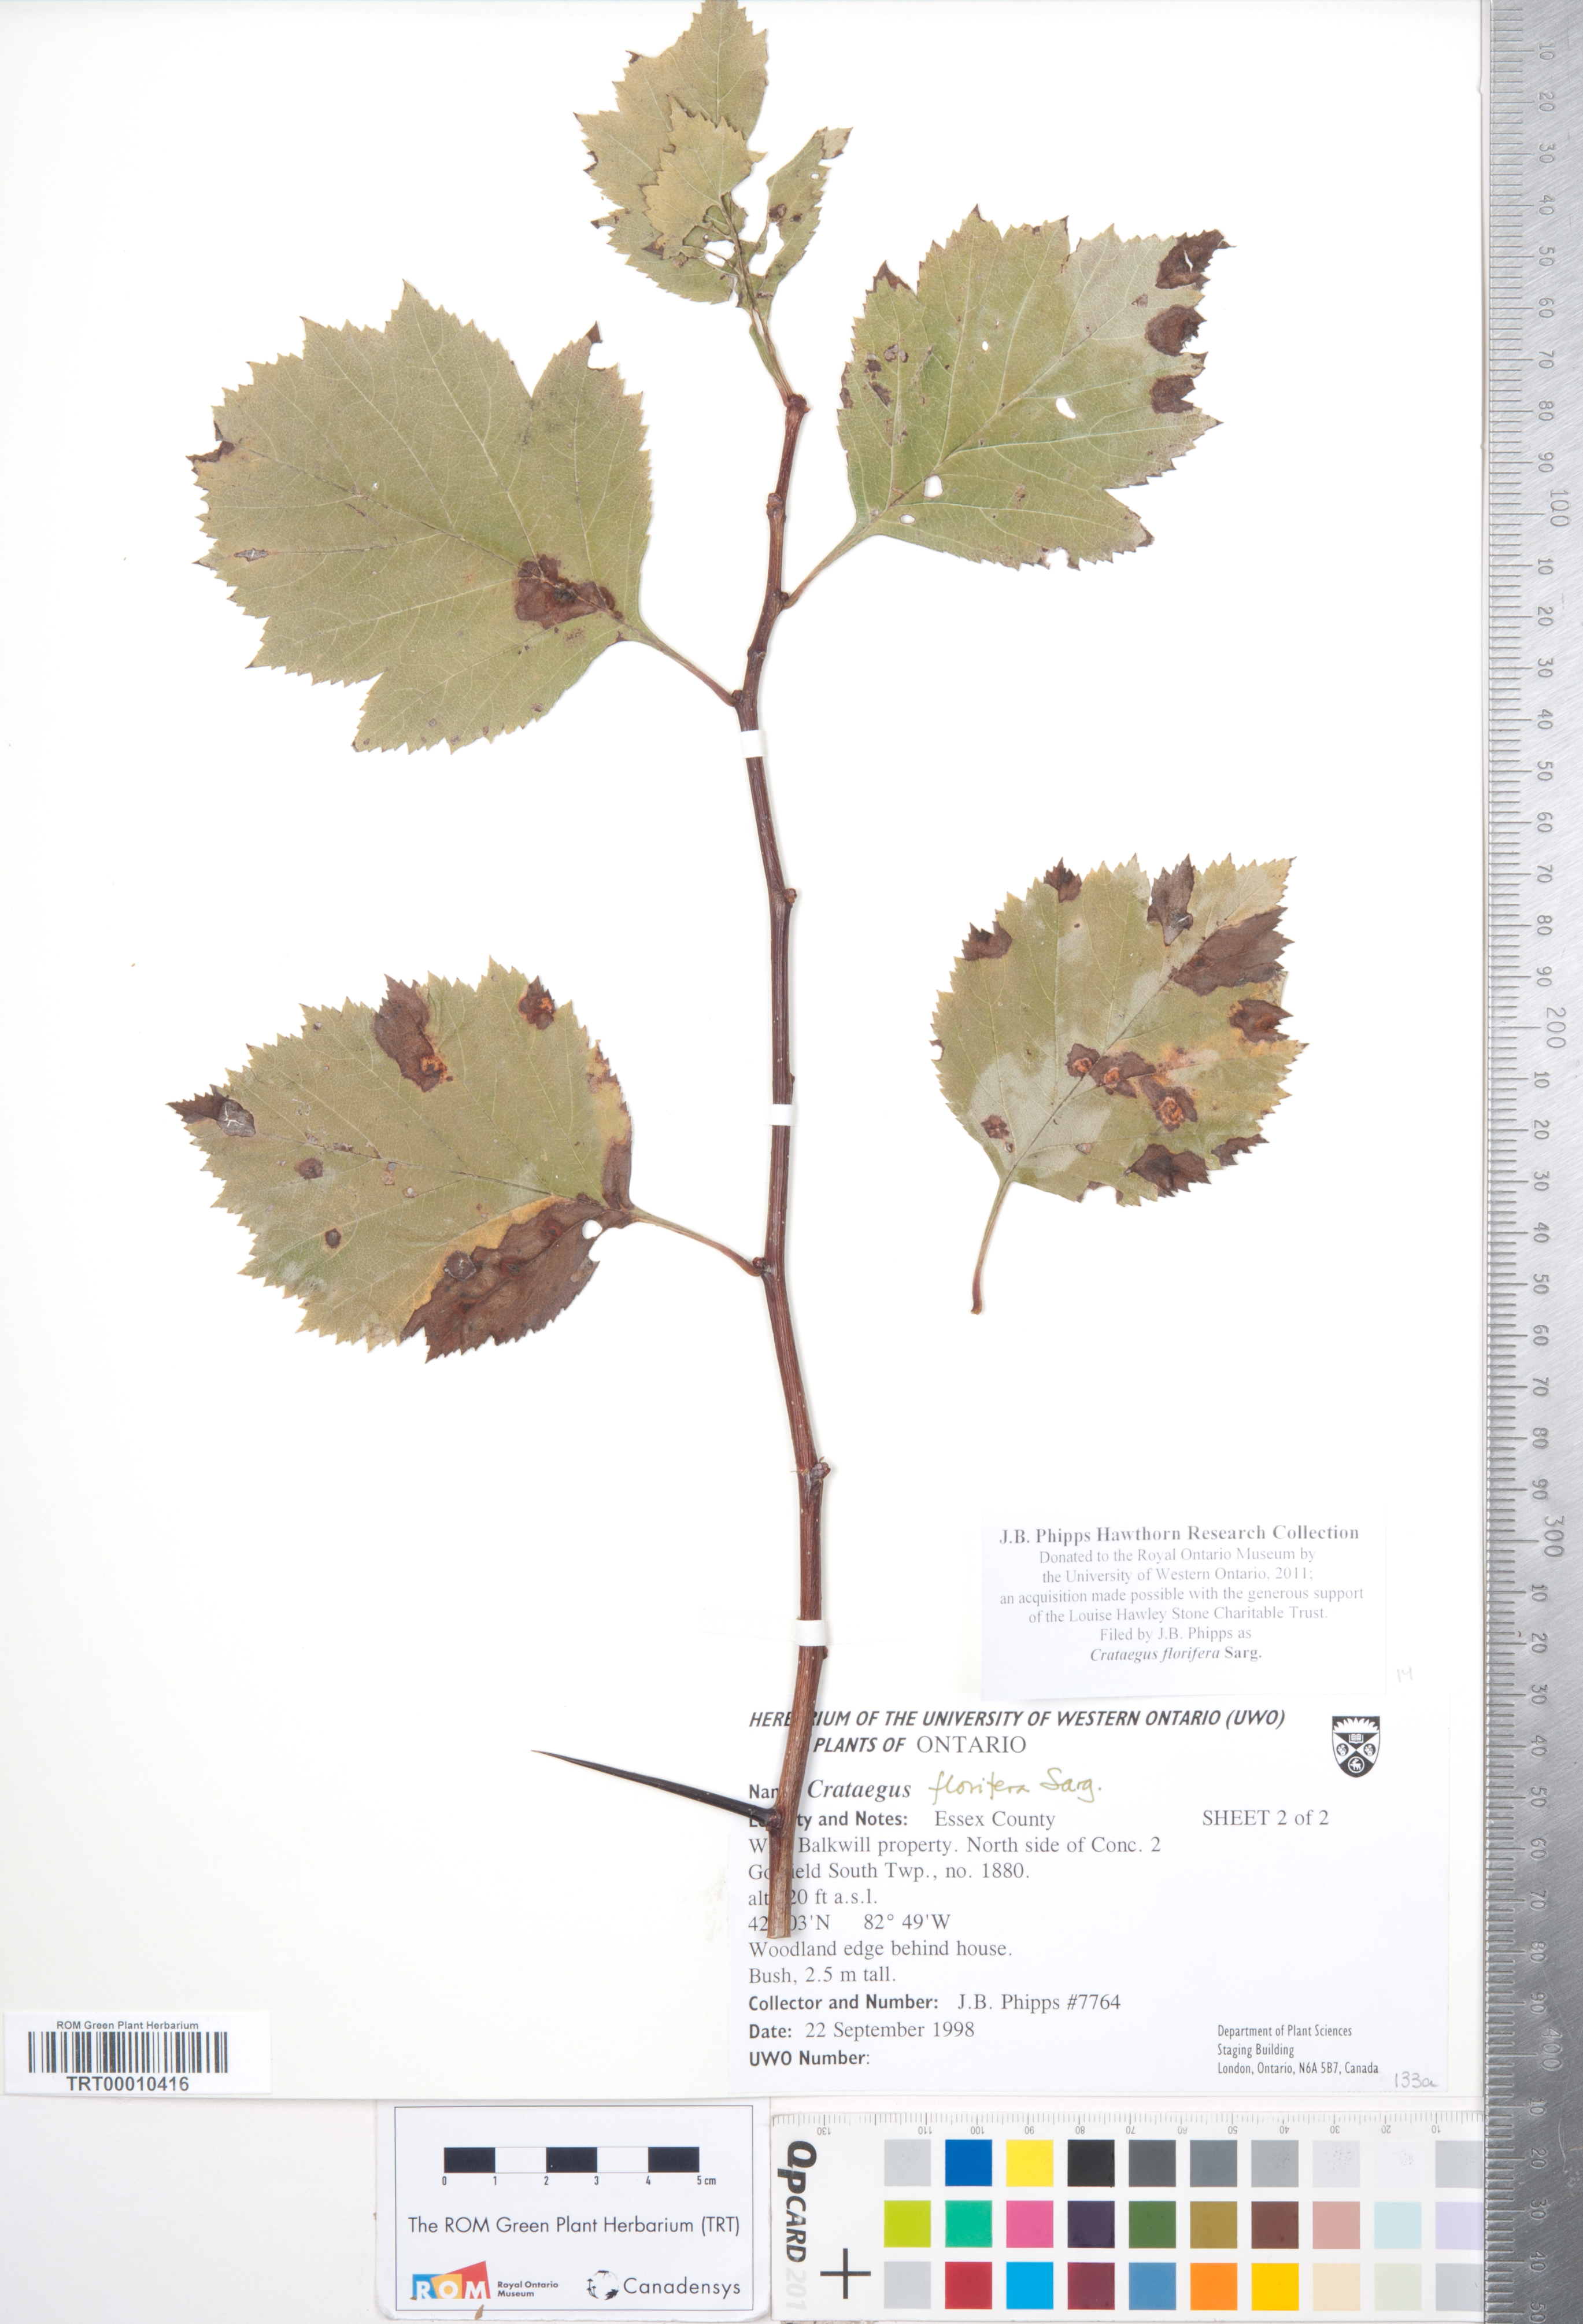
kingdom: Plantae
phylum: Tracheophyta
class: Magnoliopsida
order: Rosales
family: Rosaceae
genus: Crataegus
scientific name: Crataegus florifera
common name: Woodland hawthorn
